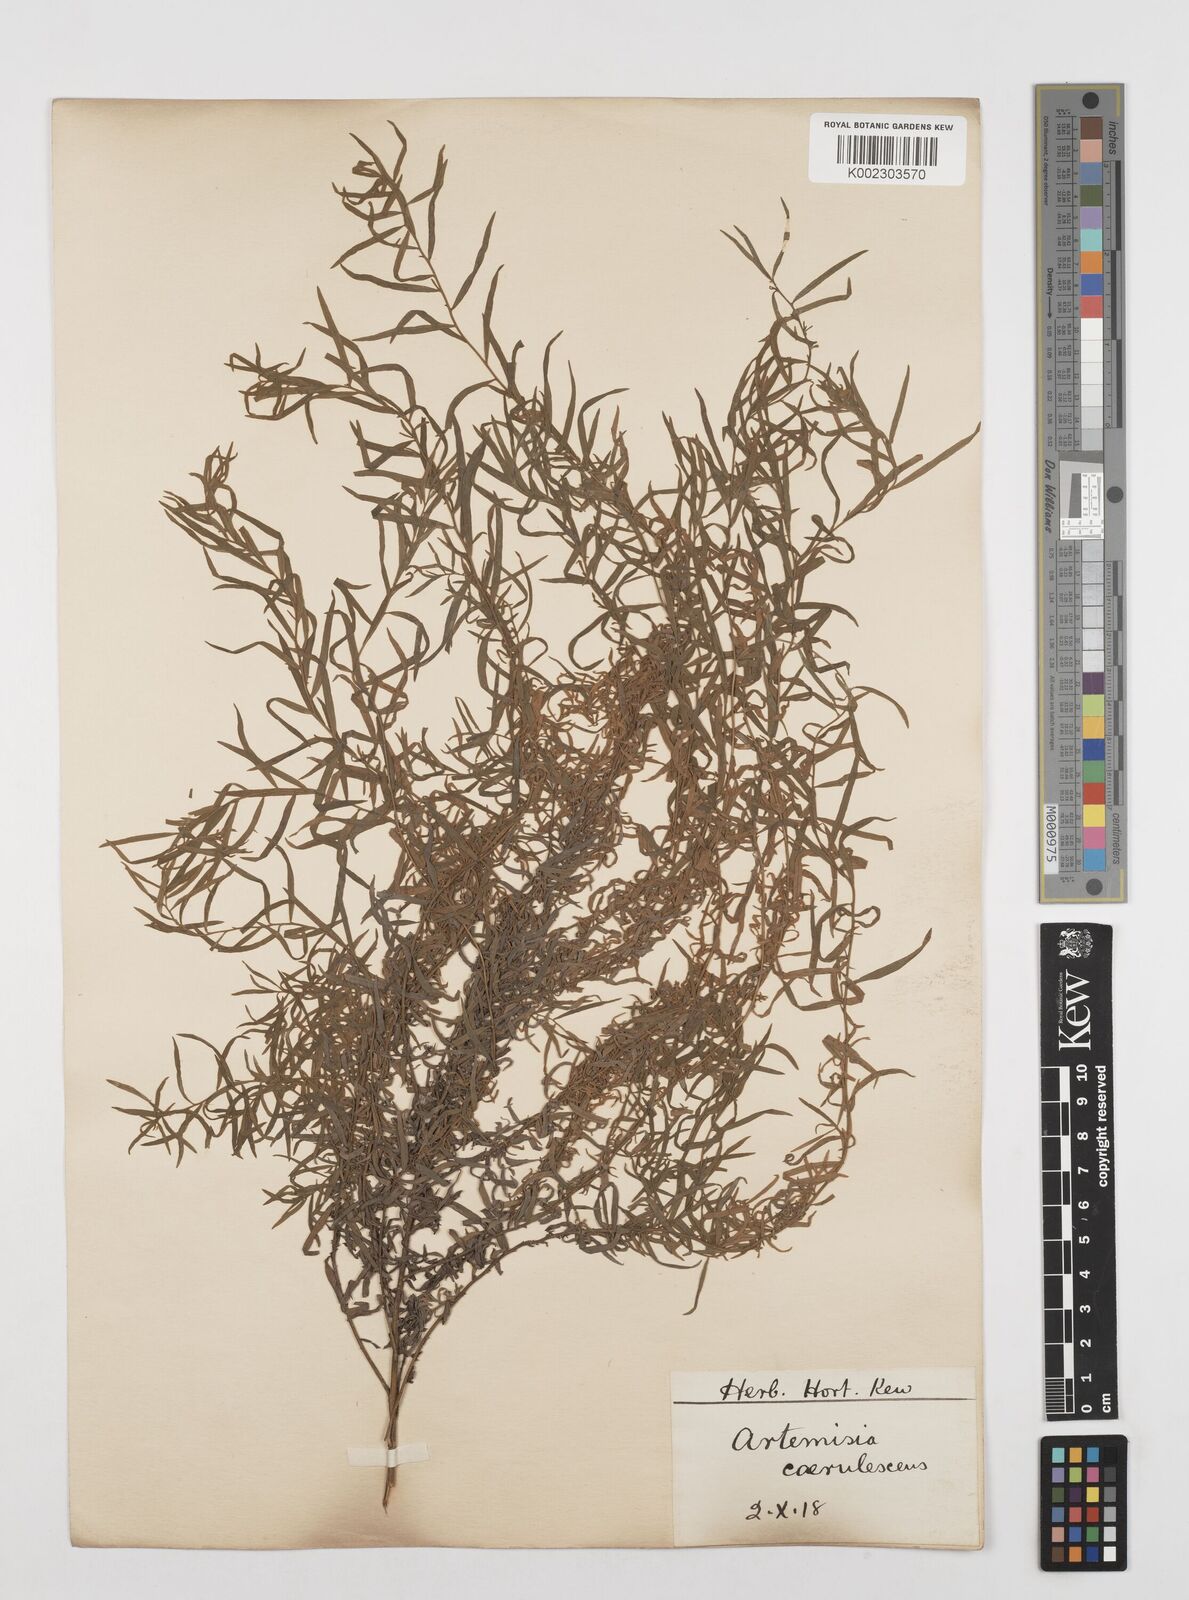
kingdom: Plantae
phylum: Tracheophyta
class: Magnoliopsida
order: Asterales
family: Asteraceae
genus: Artemisia
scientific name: Artemisia caerulescens
